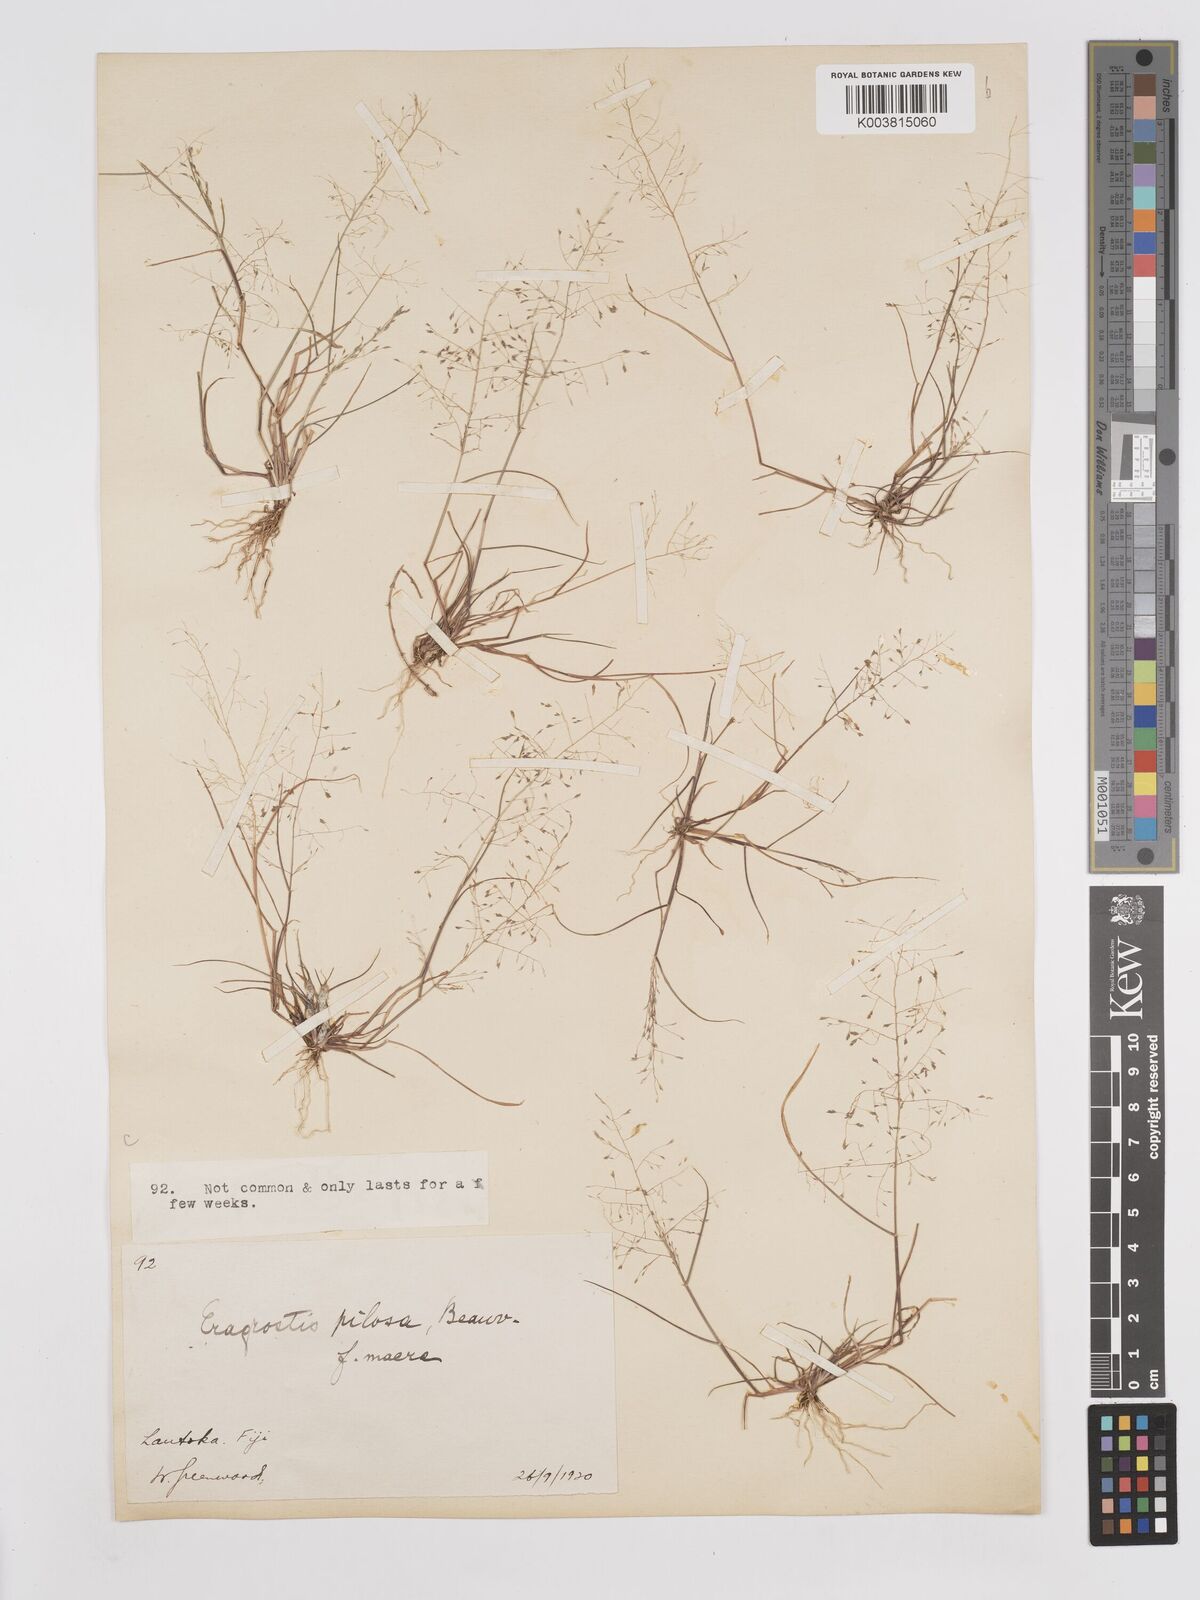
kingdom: Plantae
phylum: Tracheophyta
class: Liliopsida
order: Poales
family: Poaceae
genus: Eragrostis
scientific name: Eragrostis pilosa
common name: Indian lovegrass
